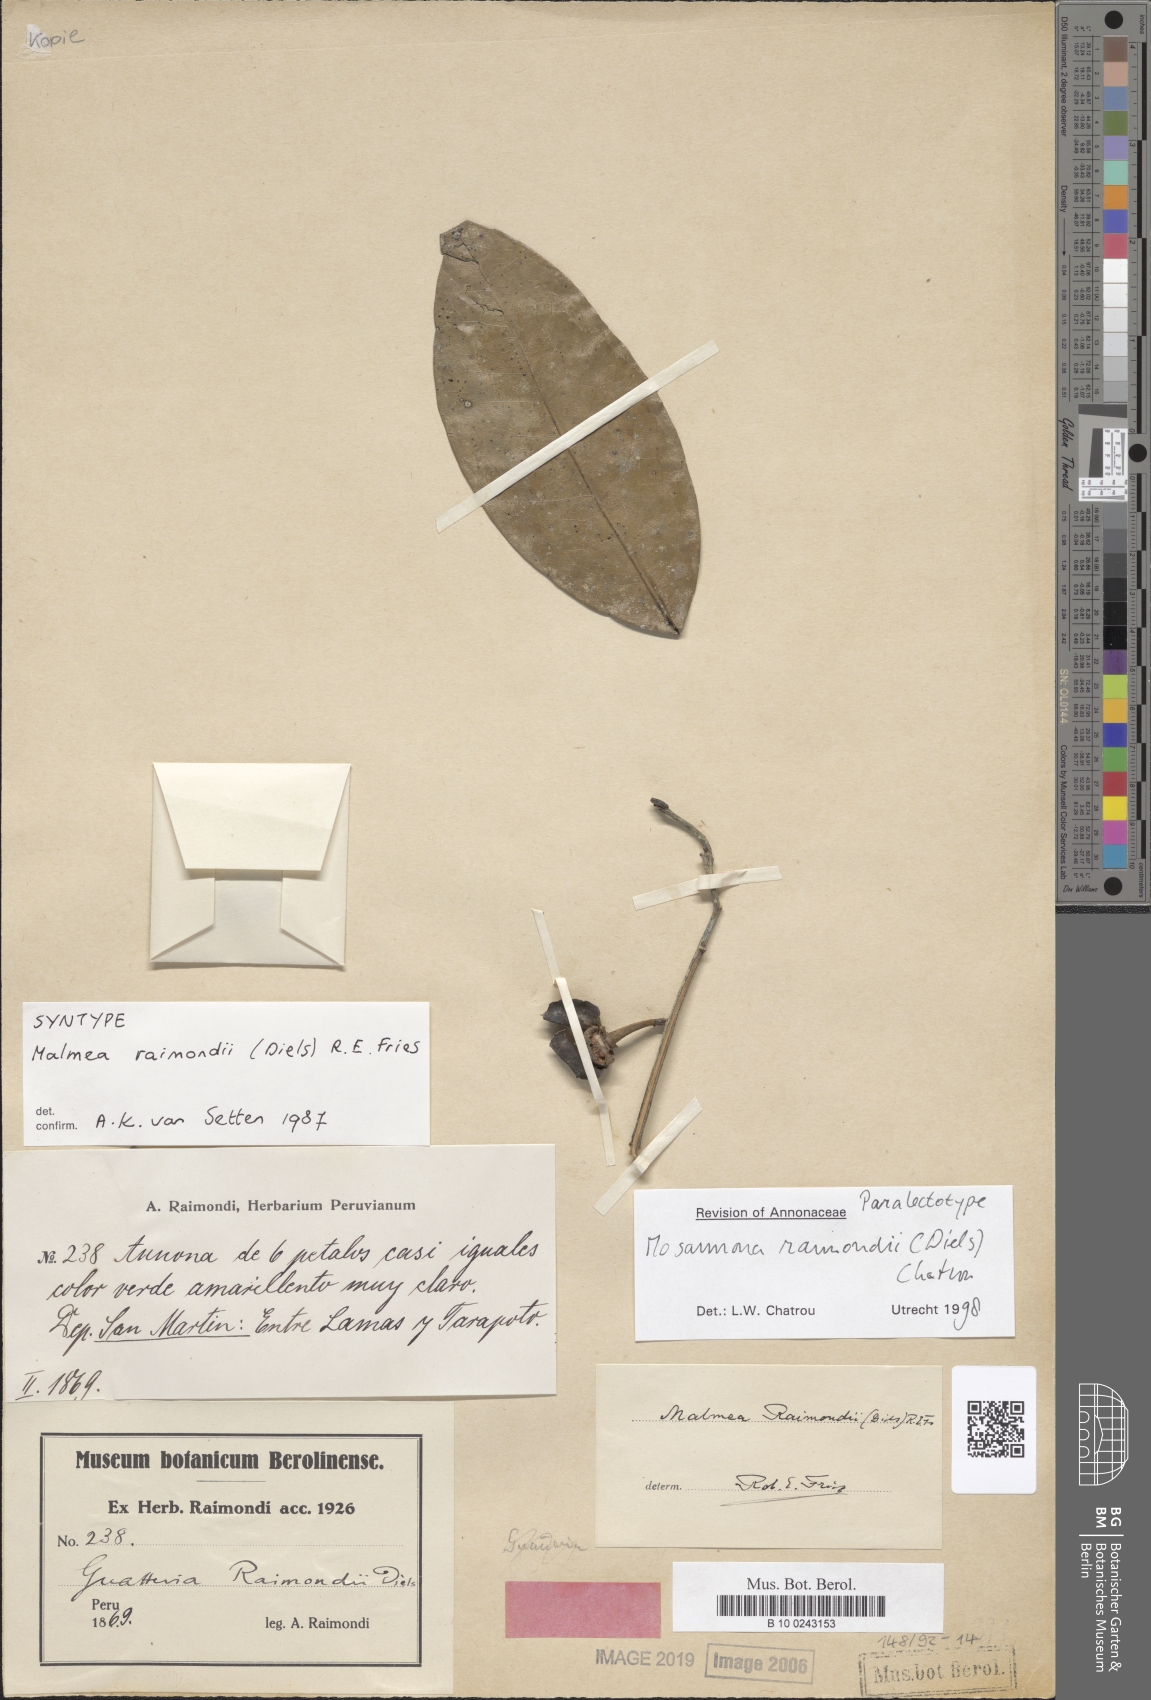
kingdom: Plantae
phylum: Tracheophyta
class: Magnoliopsida
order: Magnoliales
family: Annonaceae
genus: Mosannona
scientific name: Mosannona raimondii
